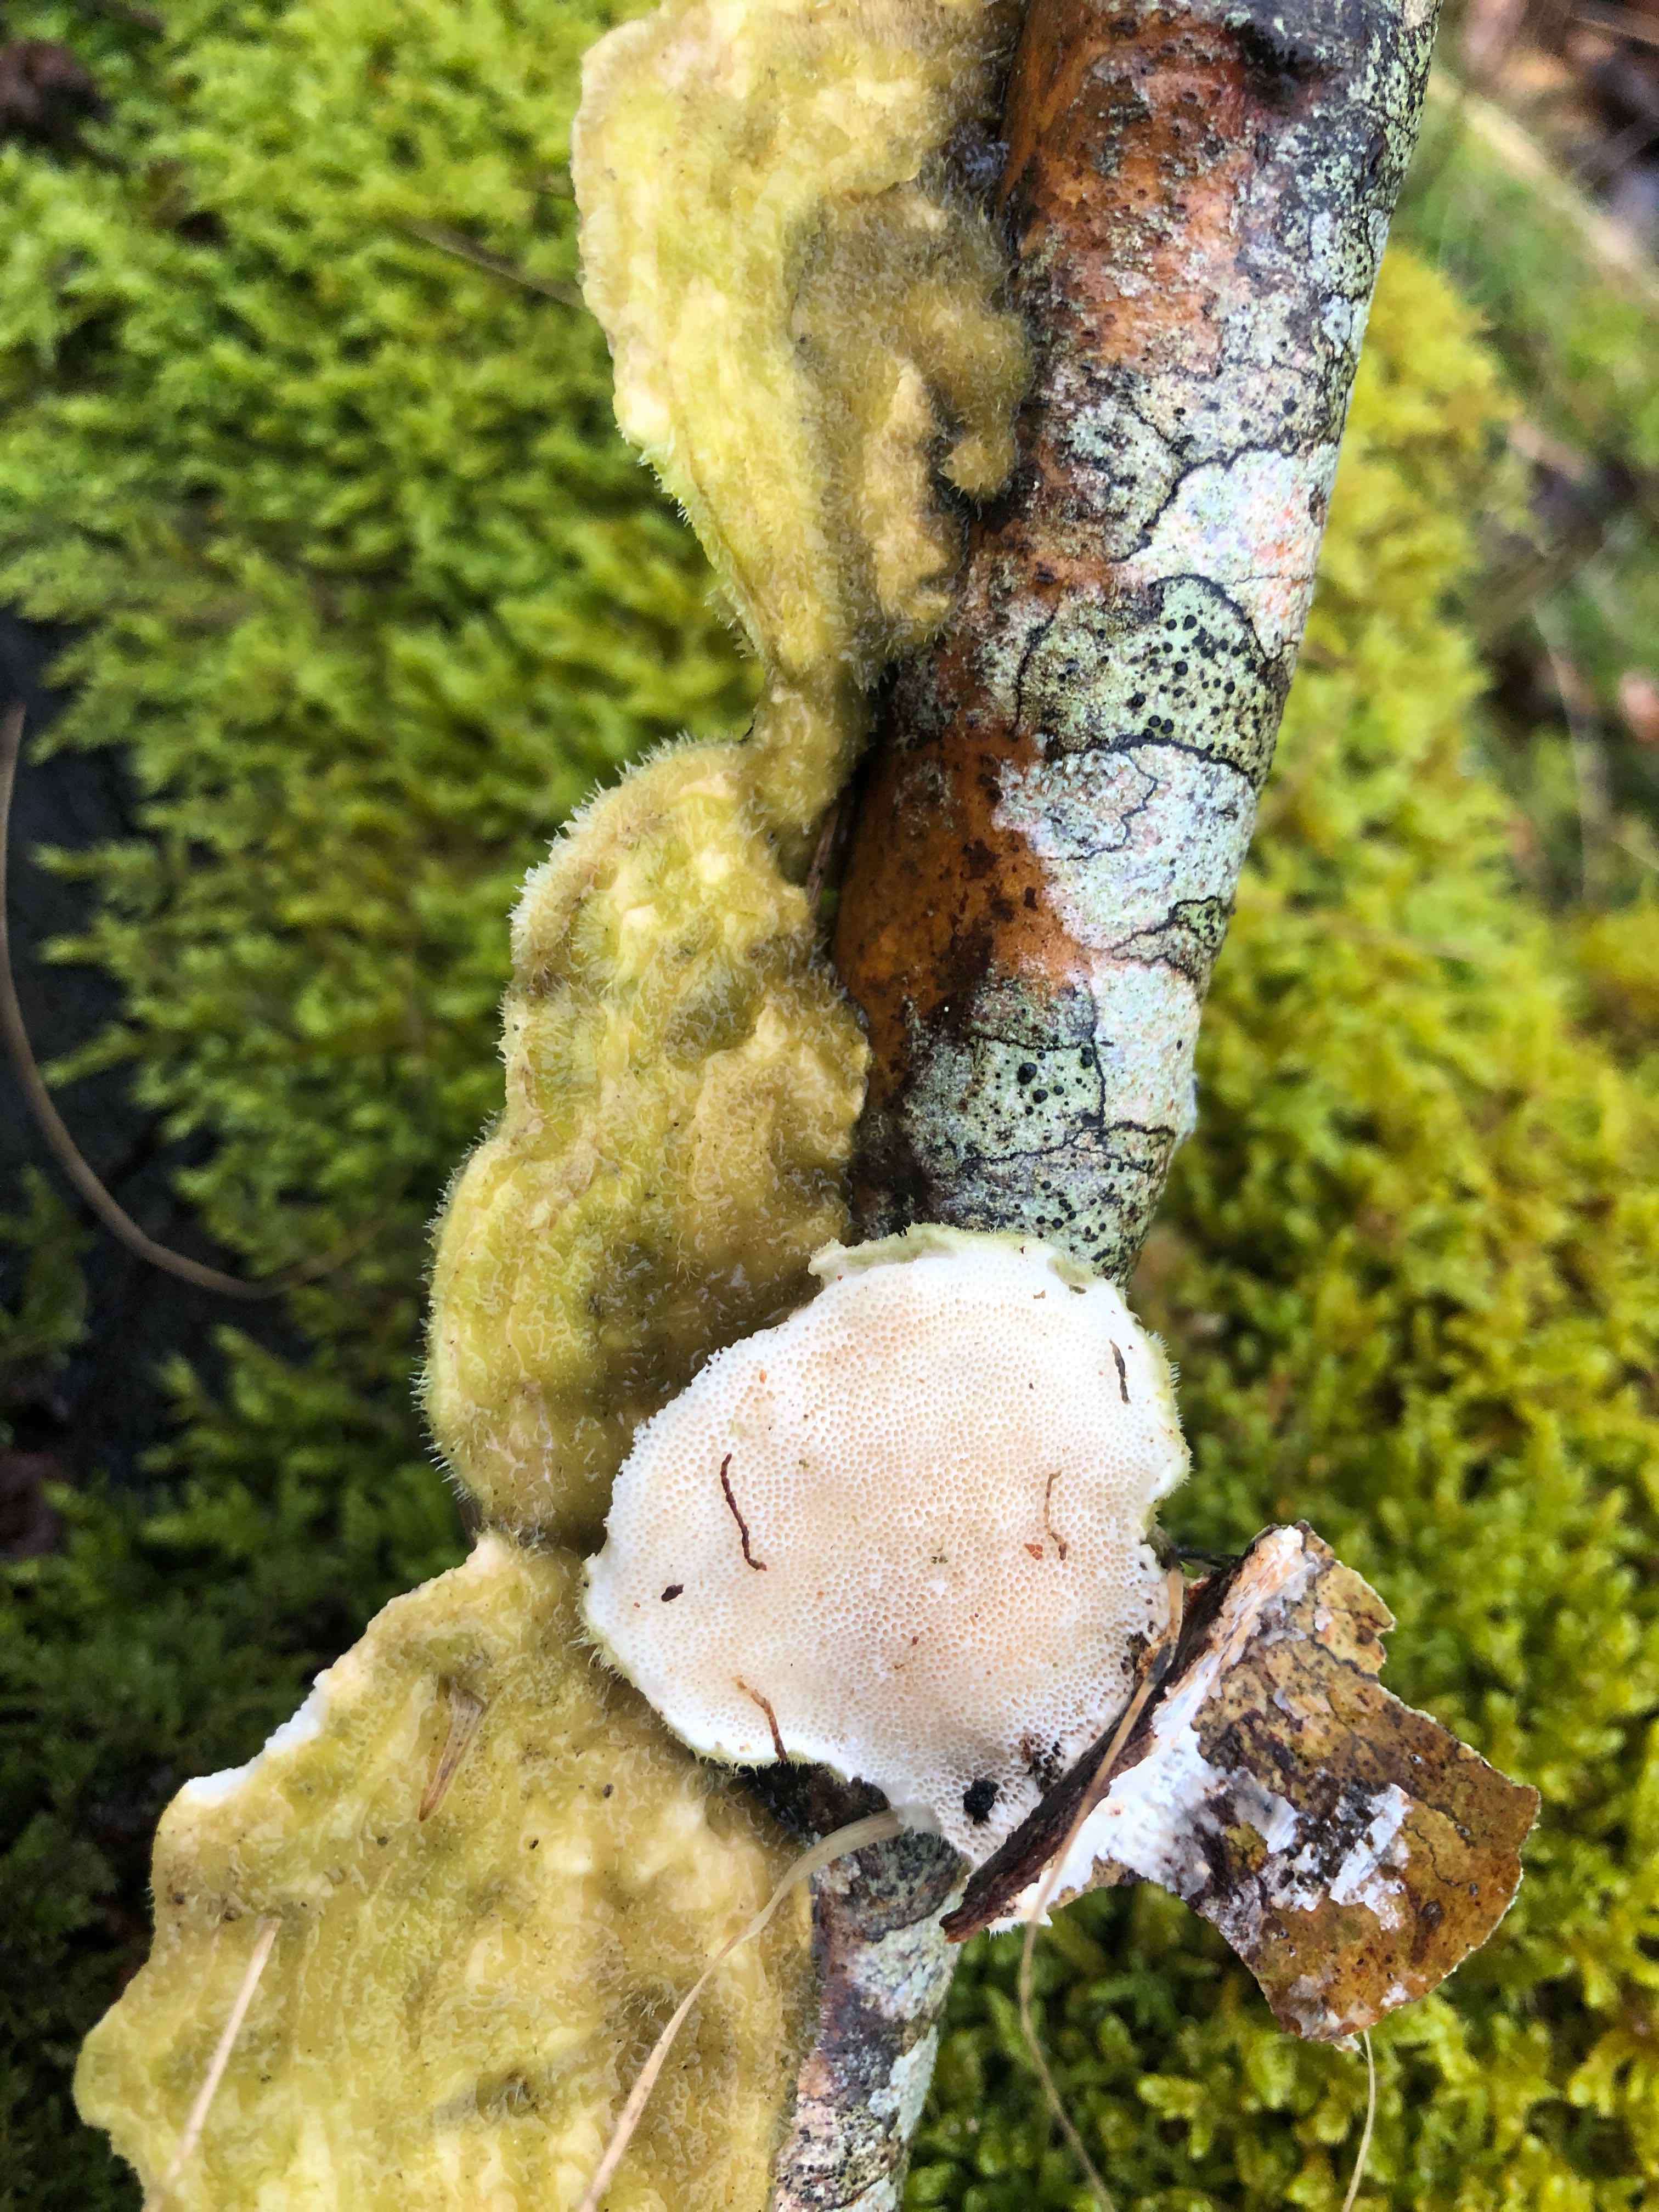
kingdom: Fungi
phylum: Basidiomycota
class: Agaricomycetes
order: Polyporales
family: Polyporaceae
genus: Trametes
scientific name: Trametes hirsuta
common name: håret læderporesvamp
